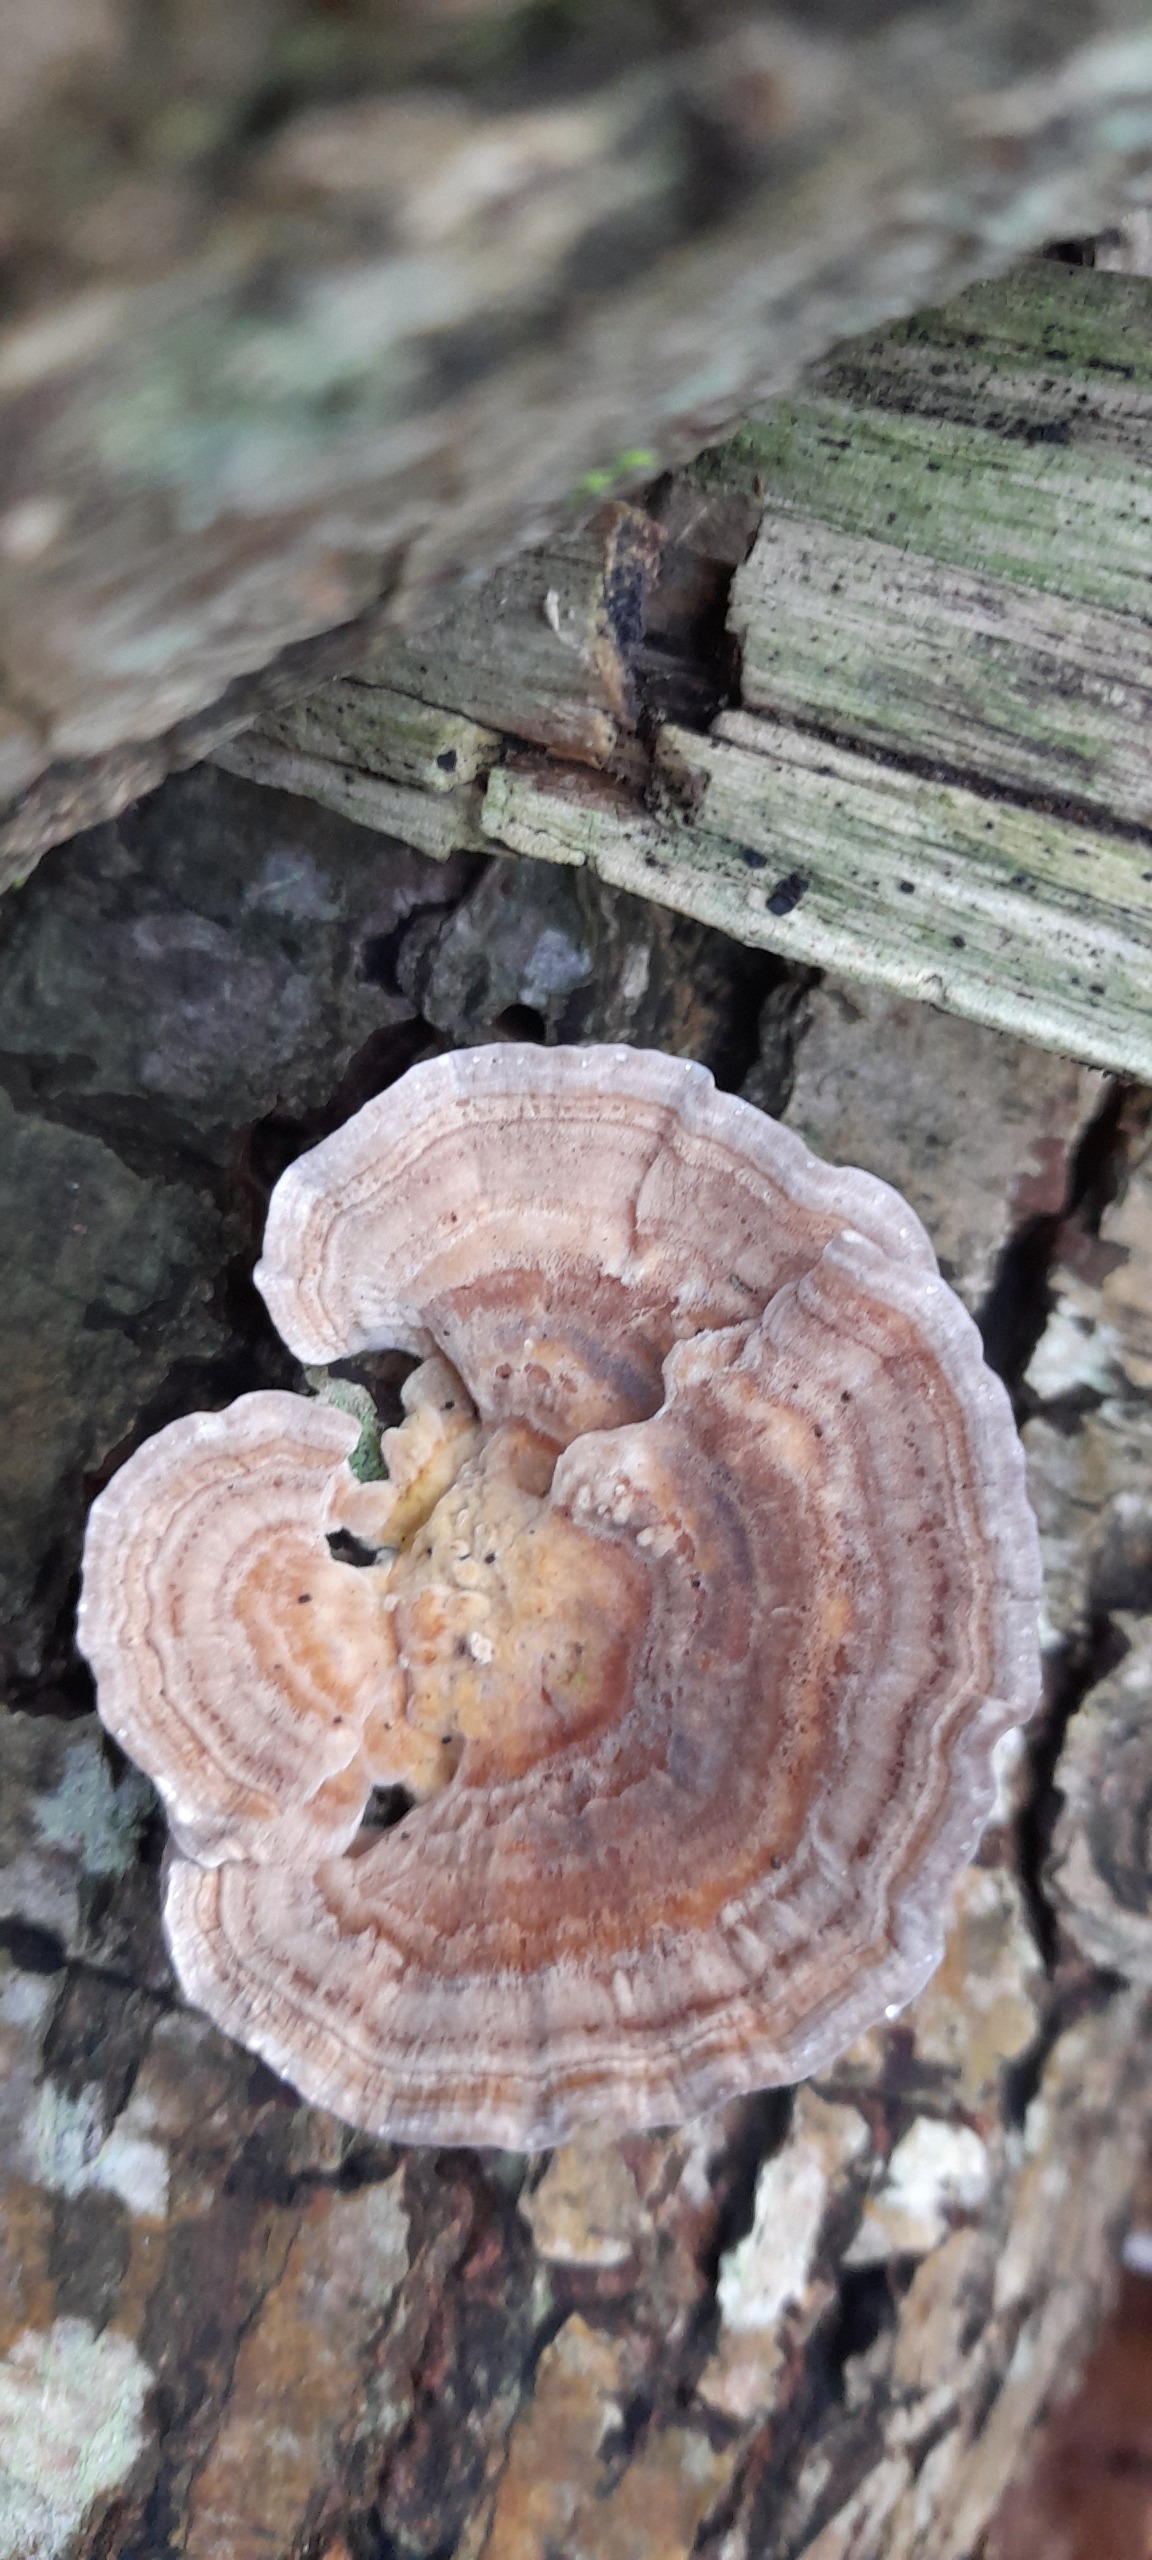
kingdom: Fungi
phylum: Basidiomycota
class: Agaricomycetes
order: Polyporales
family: Polyporaceae
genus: Trametes
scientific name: Trametes versicolor
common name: Broget læderporesvamp
